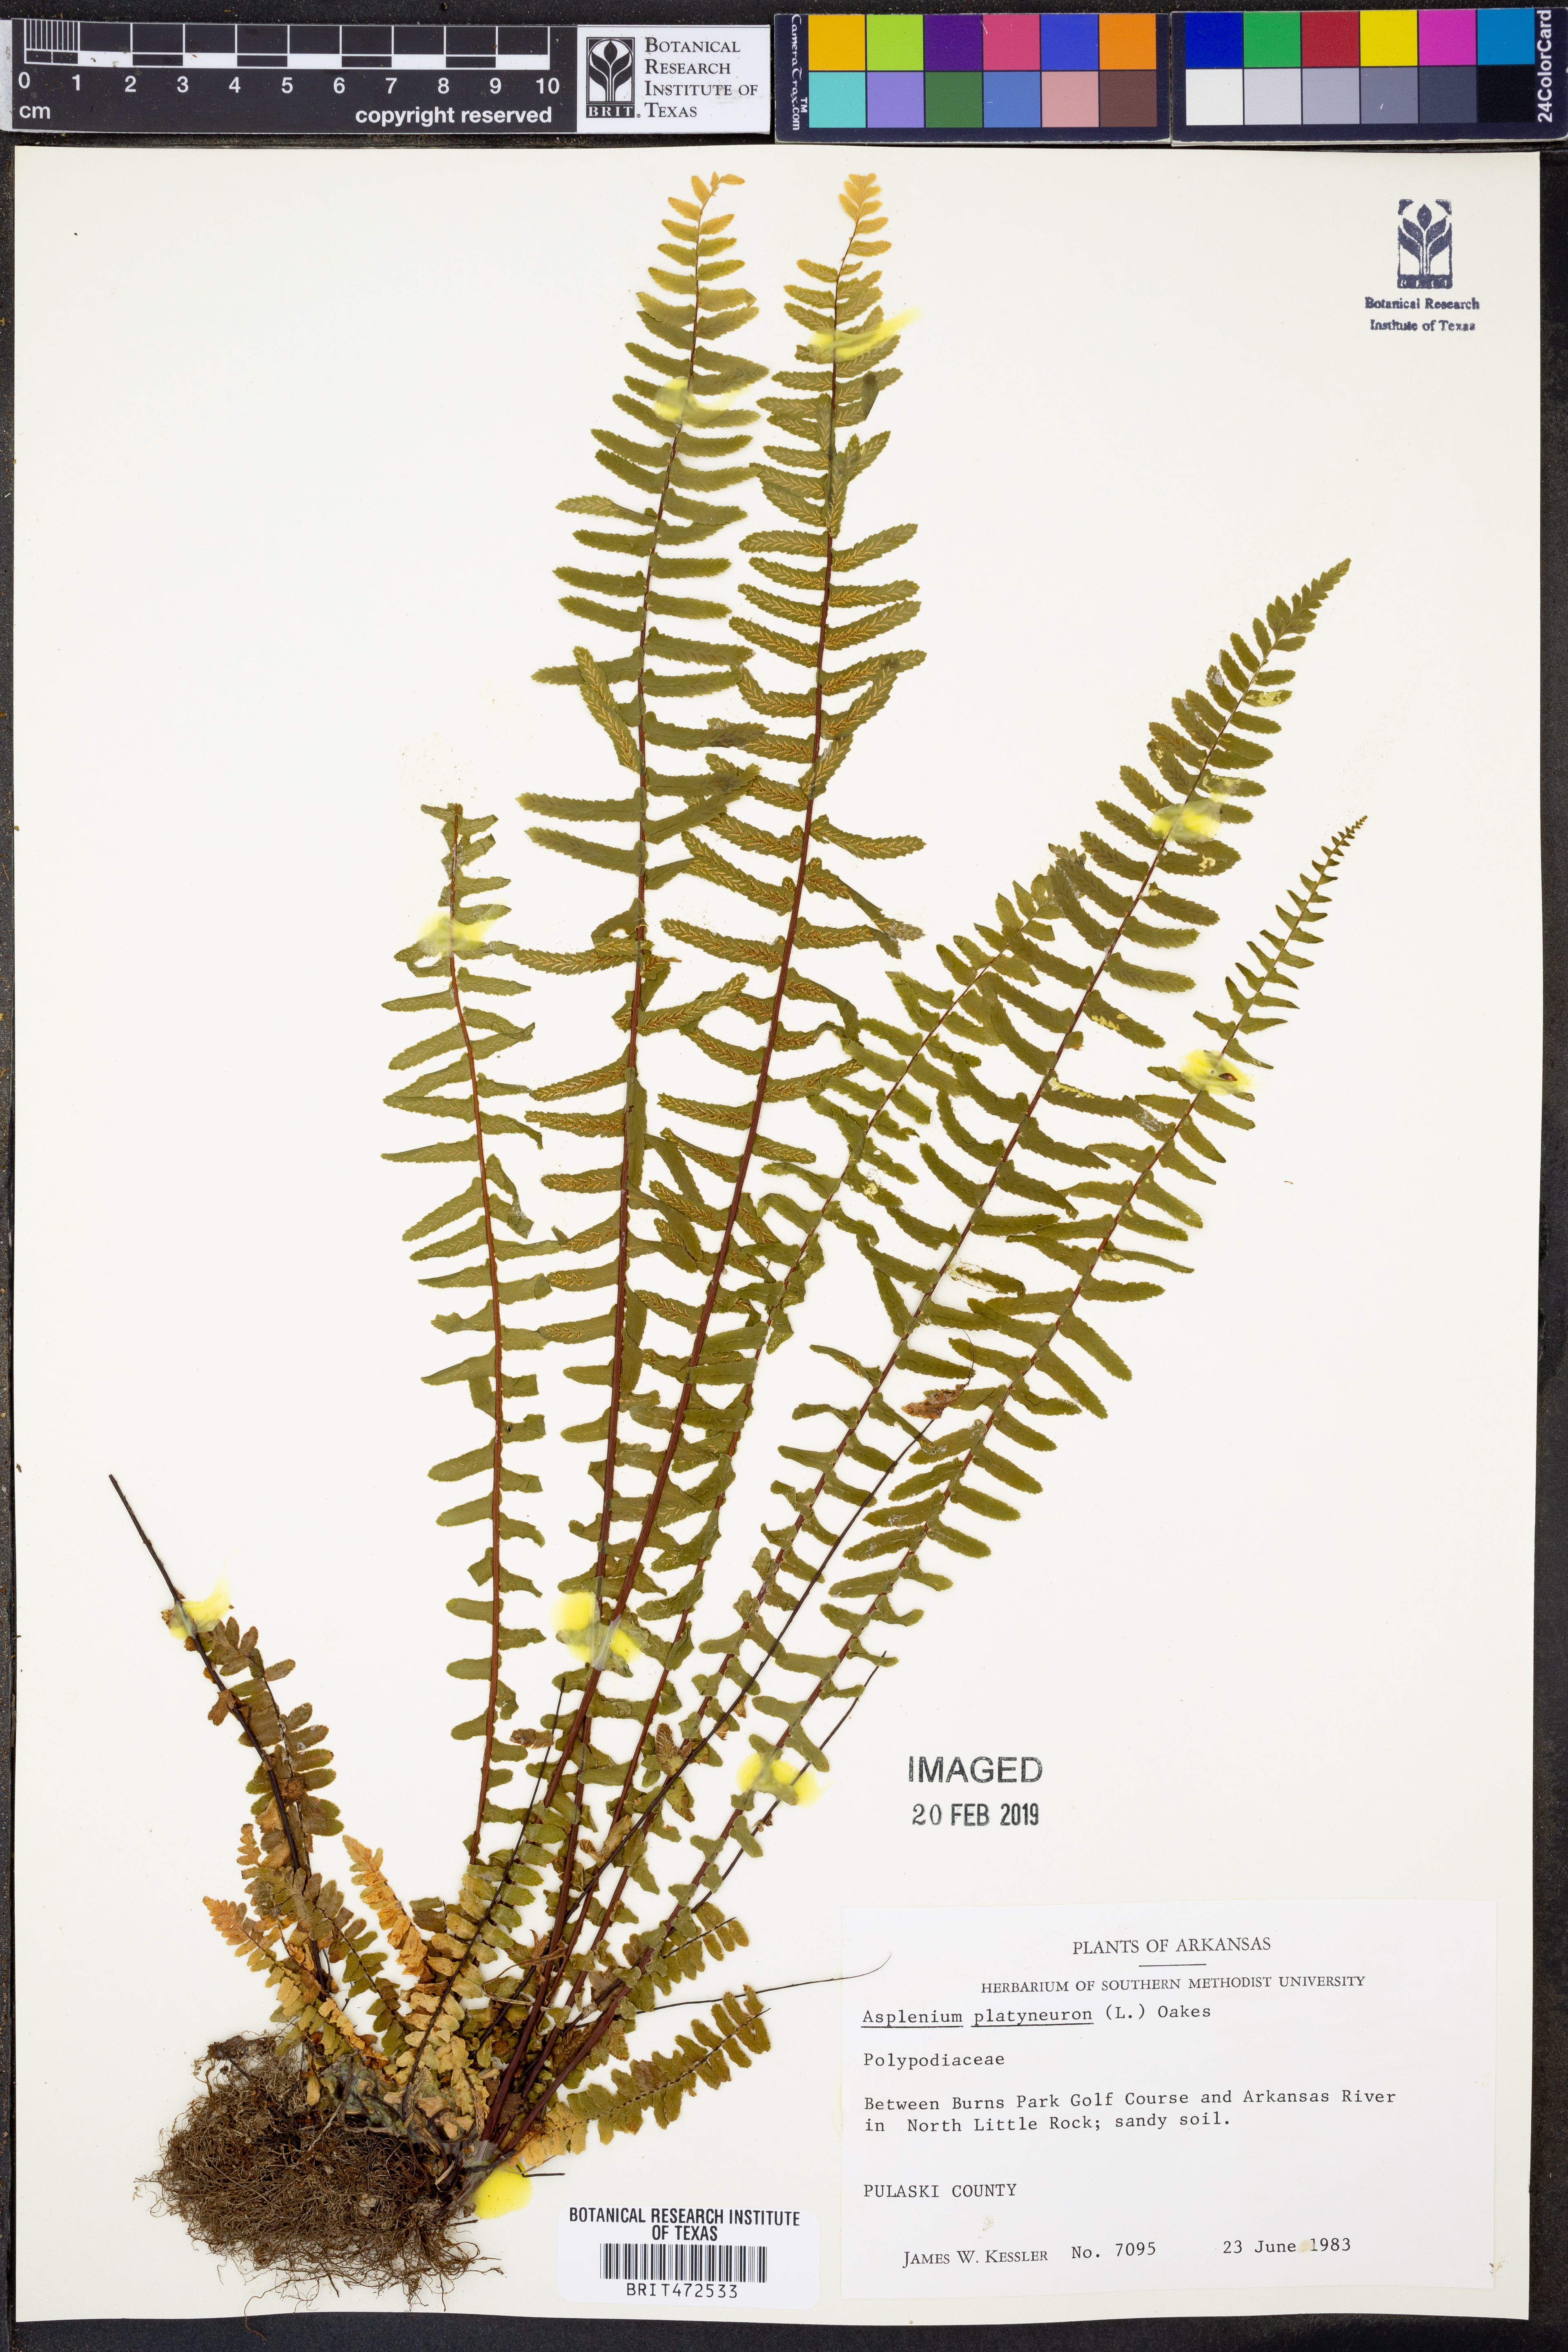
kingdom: Plantae
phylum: Tracheophyta
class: Polypodiopsida
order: Polypodiales
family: Aspleniaceae
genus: Asplenium
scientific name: Asplenium platyneuron
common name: Ebony spleenwort
